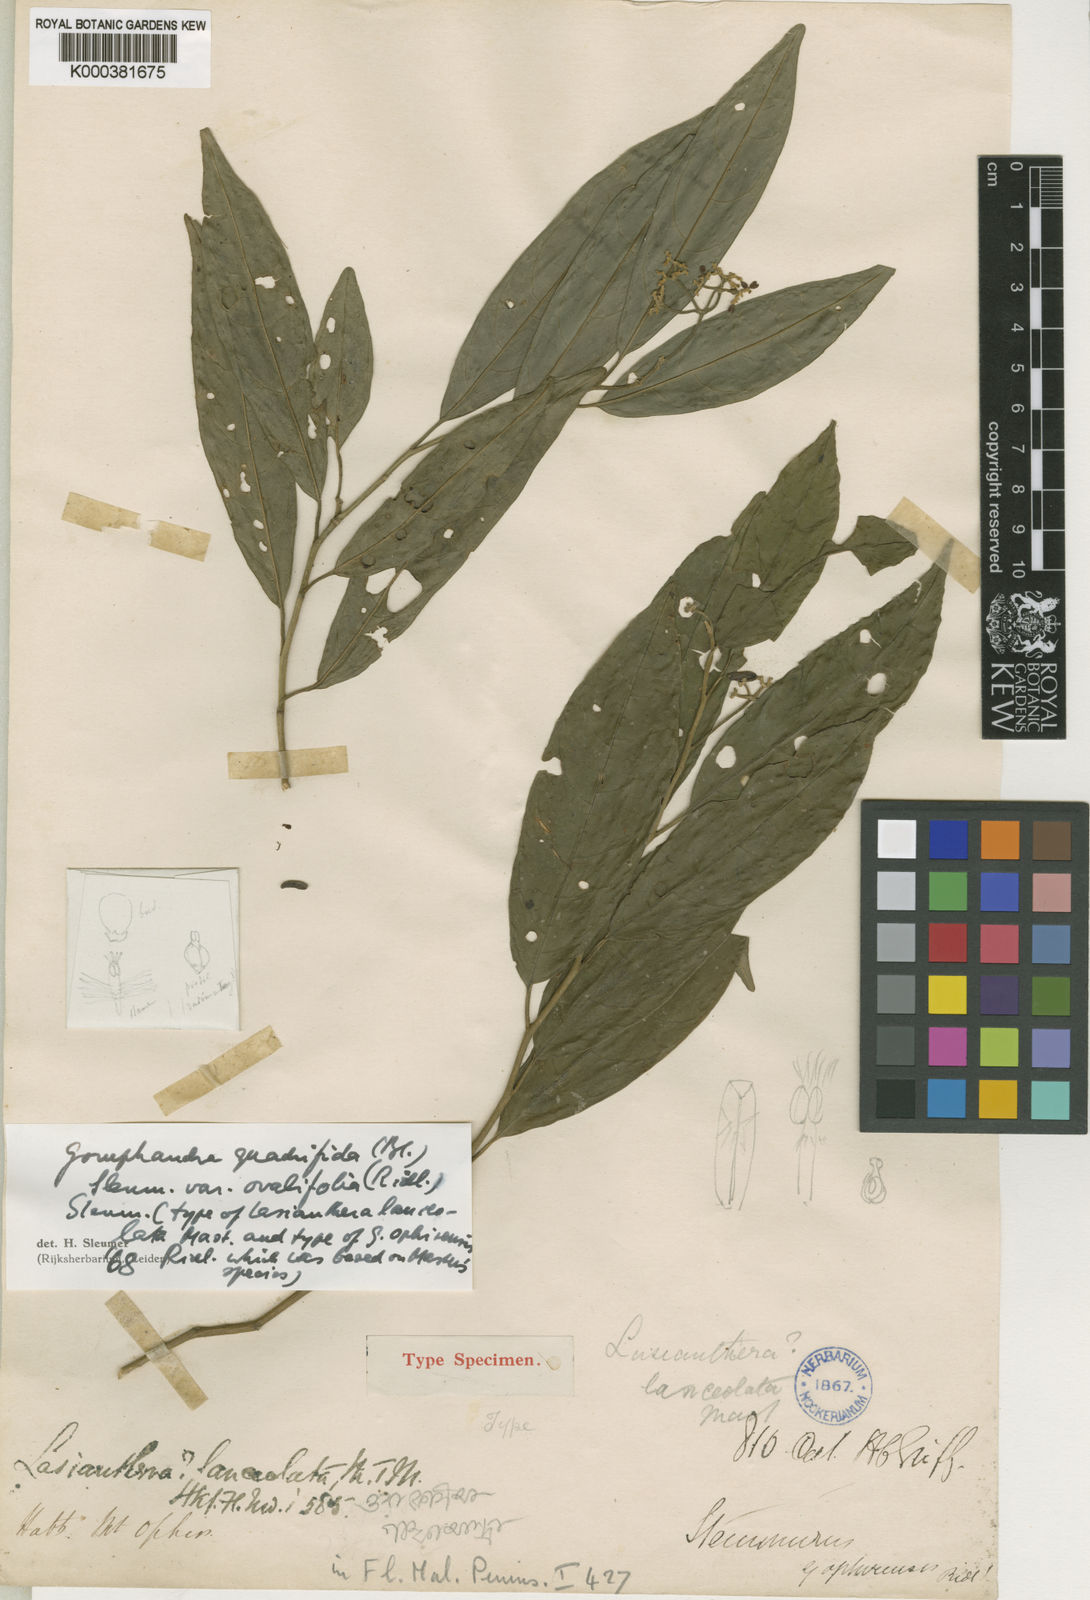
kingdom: Plantae
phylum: Tracheophyta
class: Magnoliopsida
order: Cardiopteridales
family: Stemonuraceae
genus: Gomphandra
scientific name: Gomphandra quadrifida
